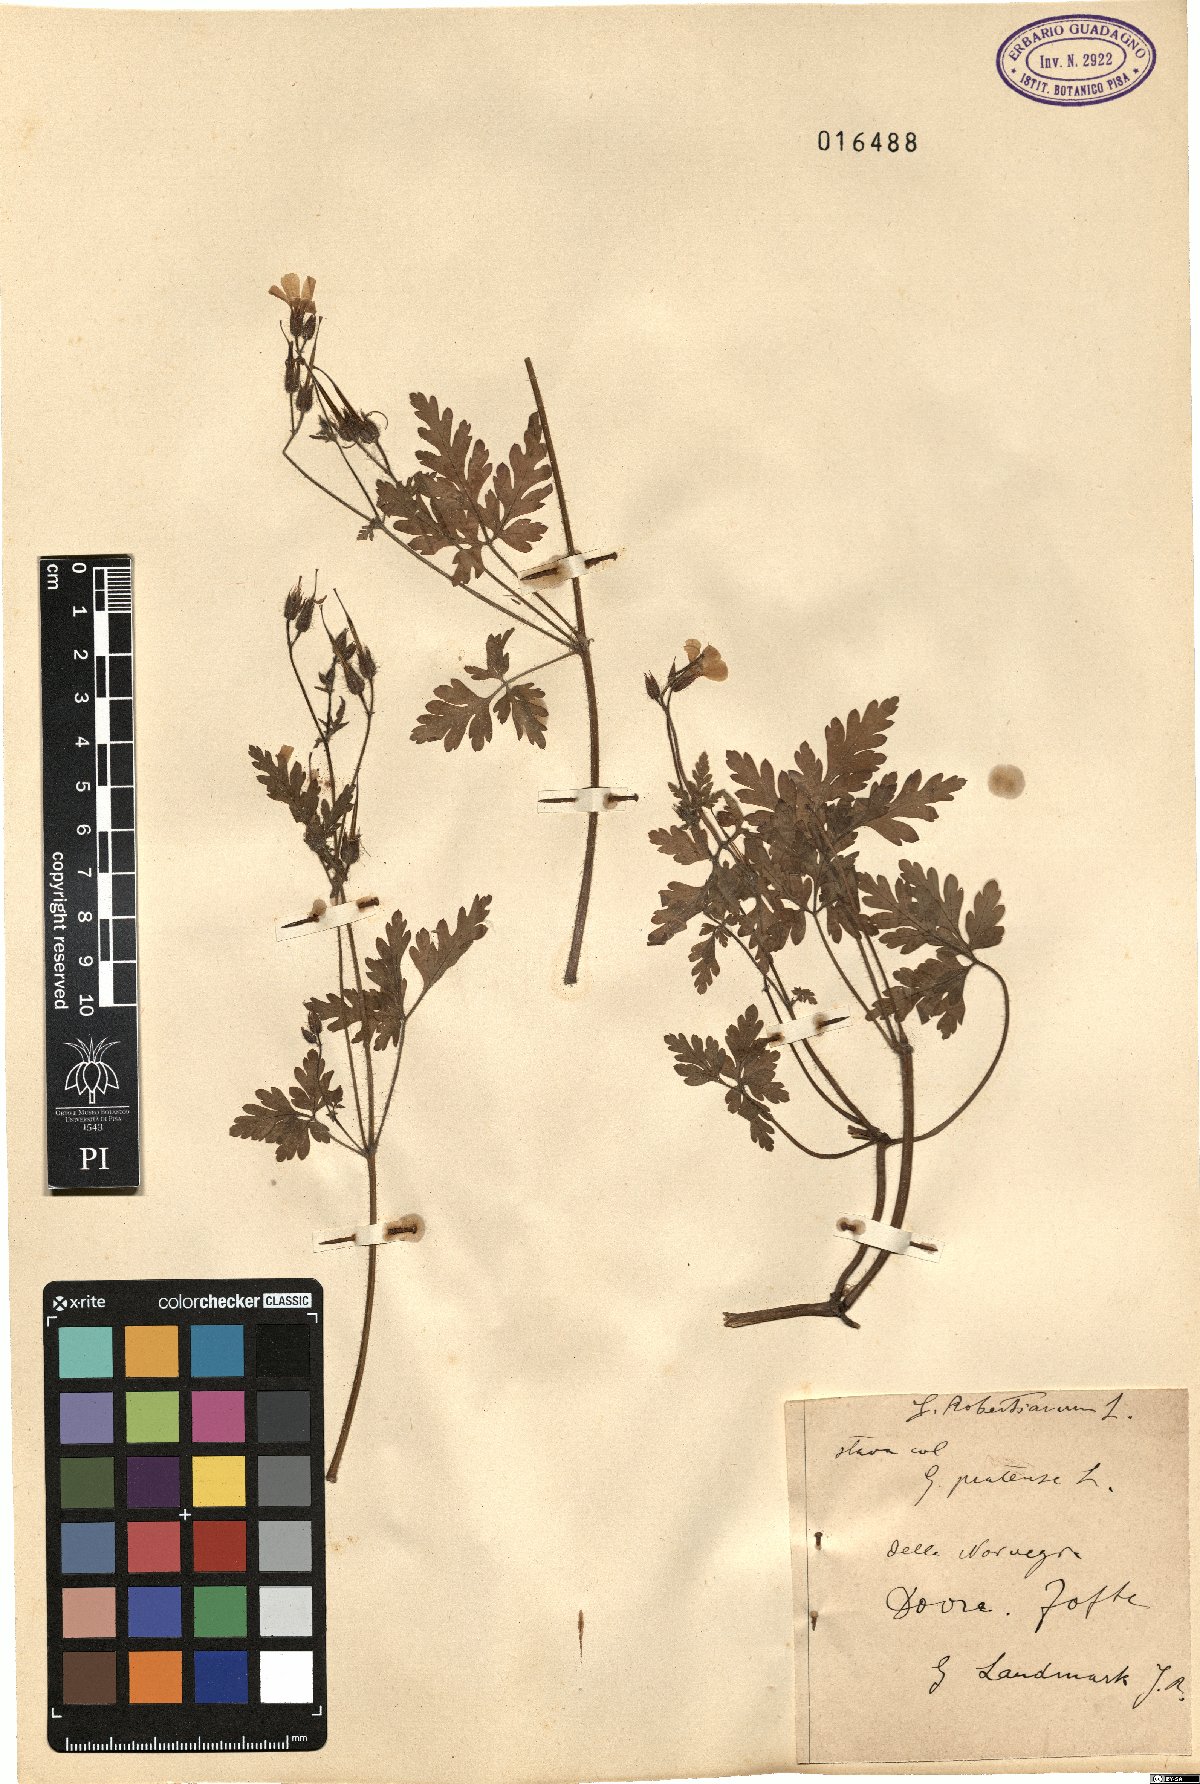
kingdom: Plantae
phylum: Tracheophyta
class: Magnoliopsida
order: Geraniales
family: Geraniaceae
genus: Geranium
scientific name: Geranium robertianum
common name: Herb-robert
